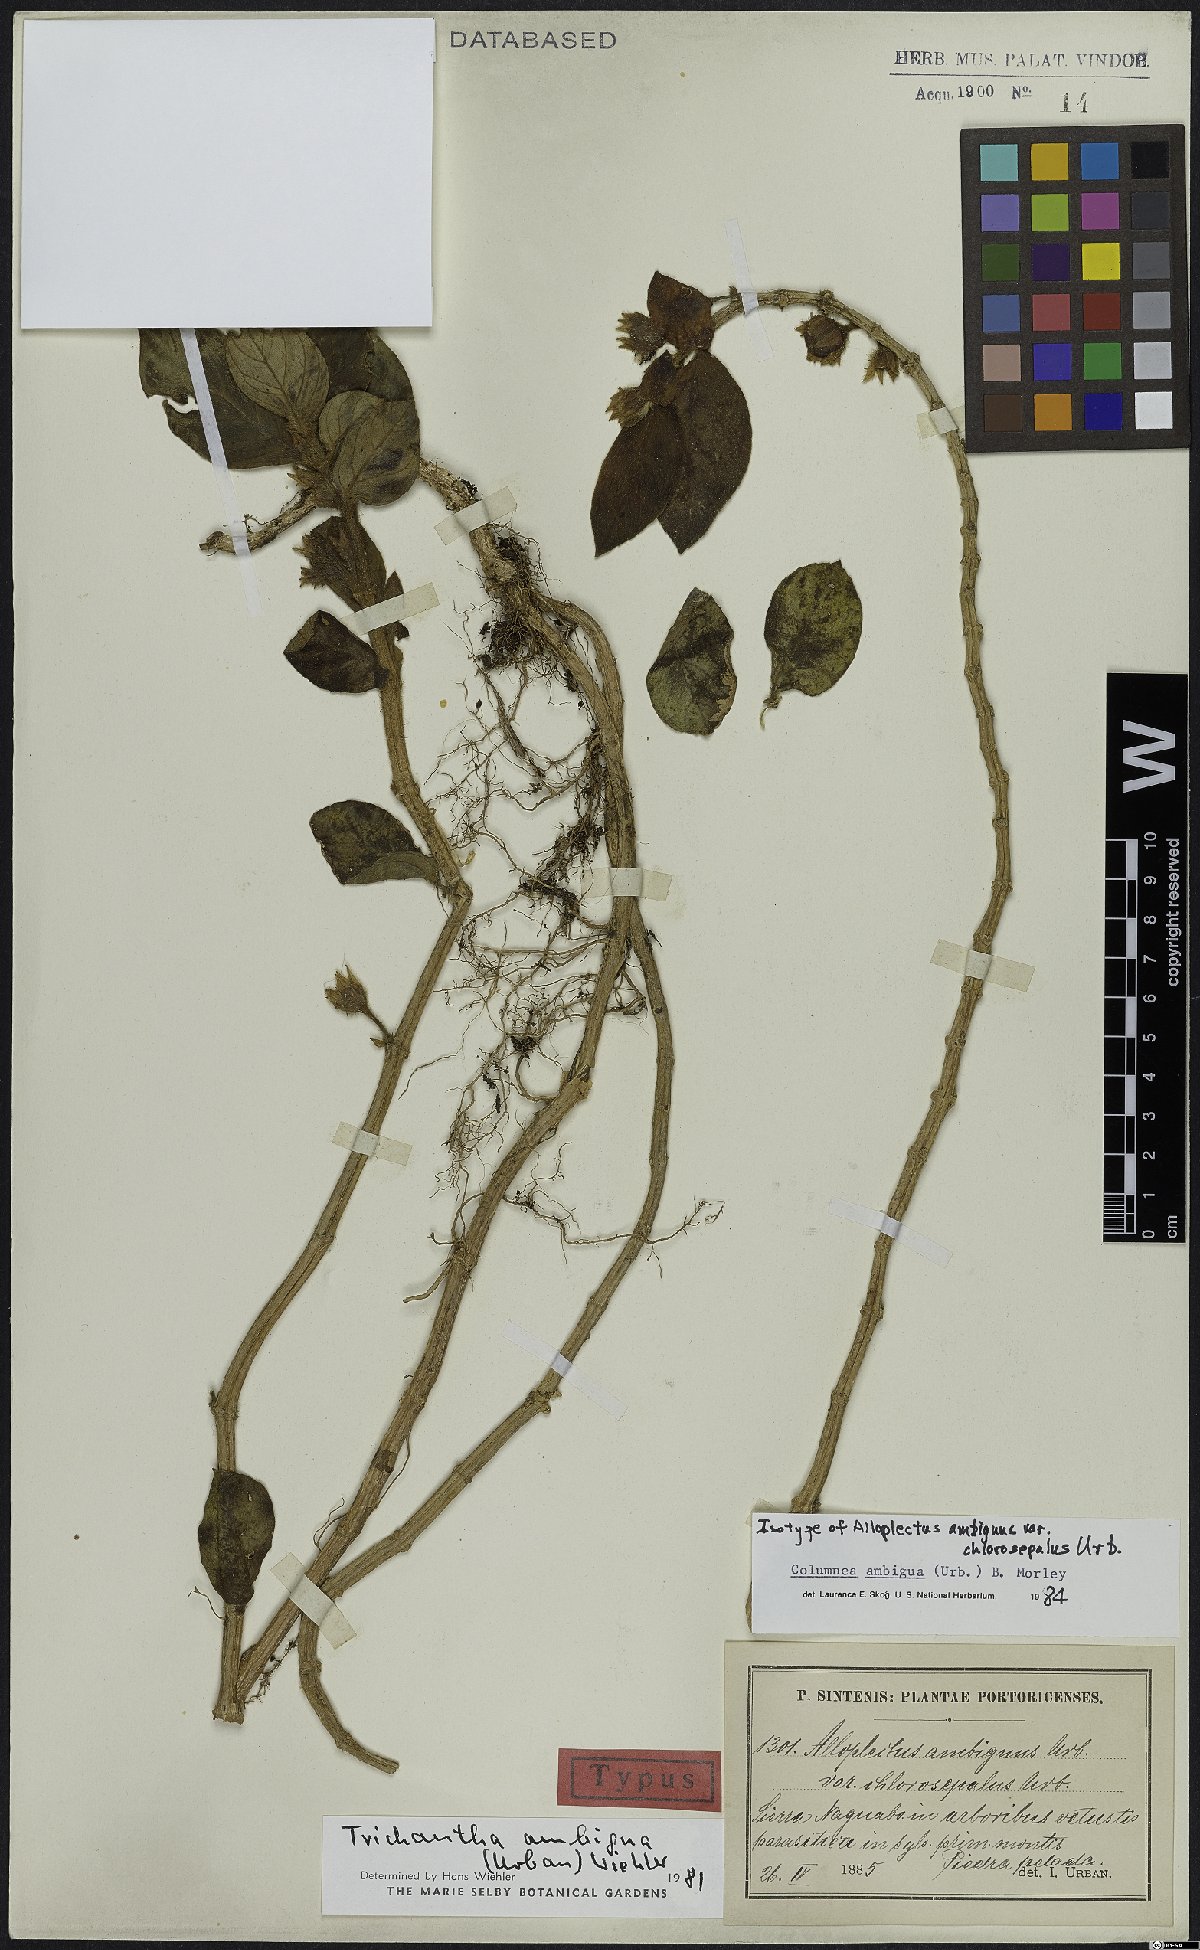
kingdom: Plantae
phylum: Tracheophyta
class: Magnoliopsida
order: Lamiales
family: Gesneriaceae
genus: Columnea
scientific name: Columnea ambigua
